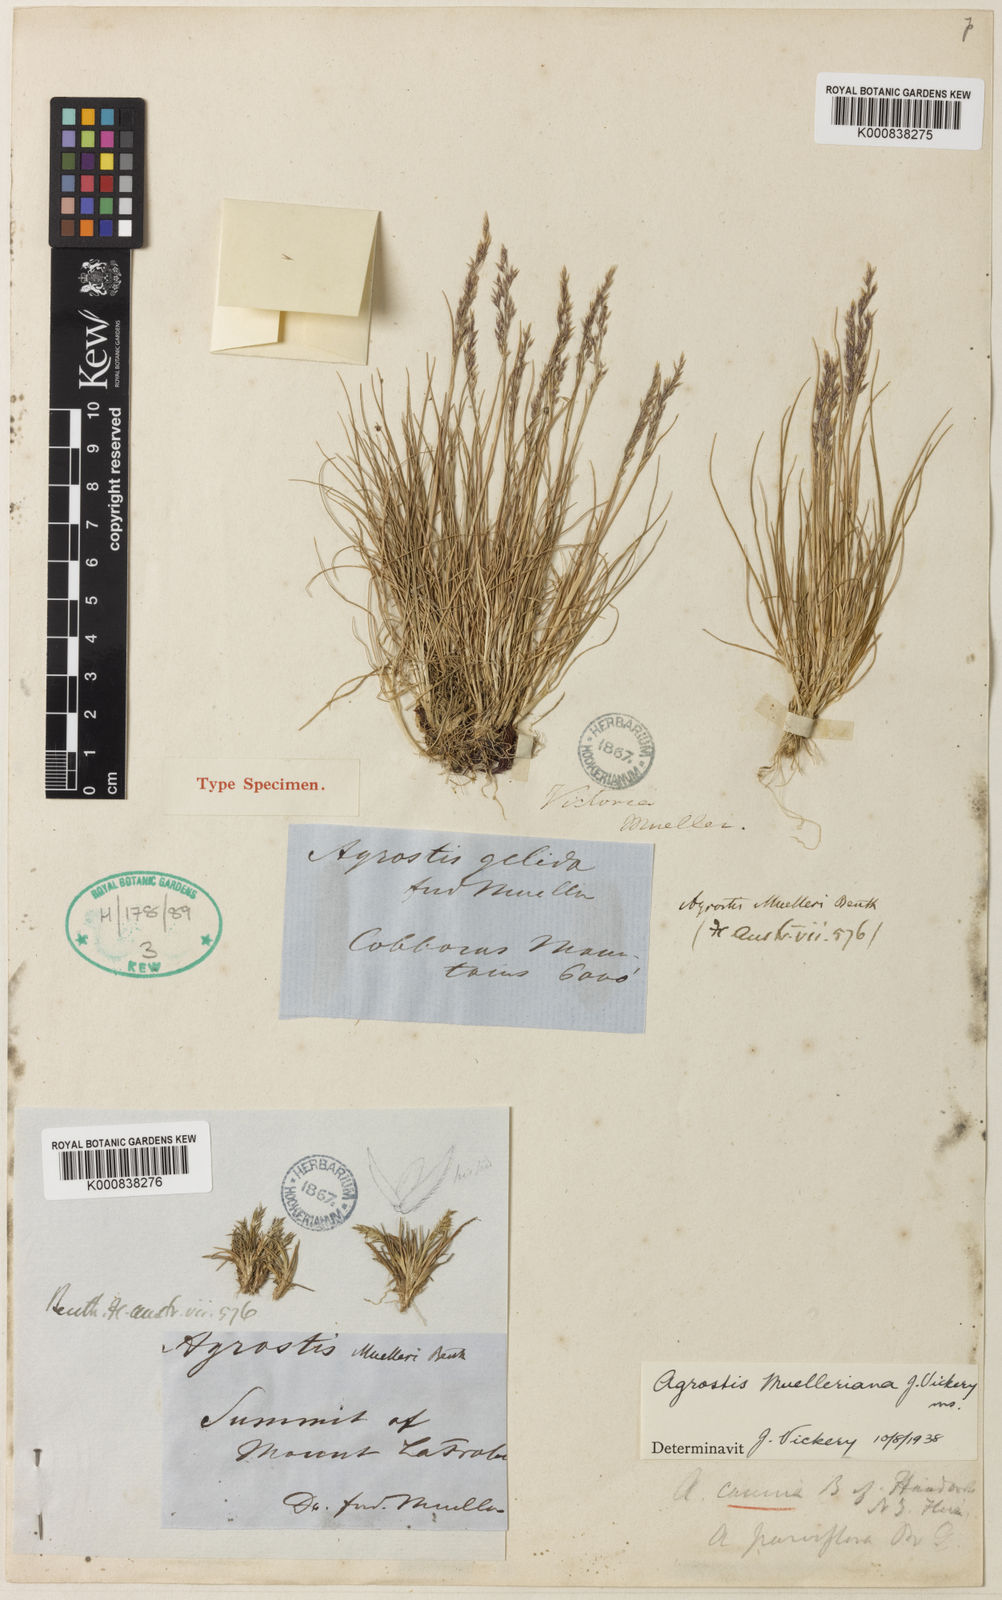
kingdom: Plantae
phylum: Tracheophyta
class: Liliopsida
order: Poales
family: Poaceae
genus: Agrostis
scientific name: Agrostis muelleriana
